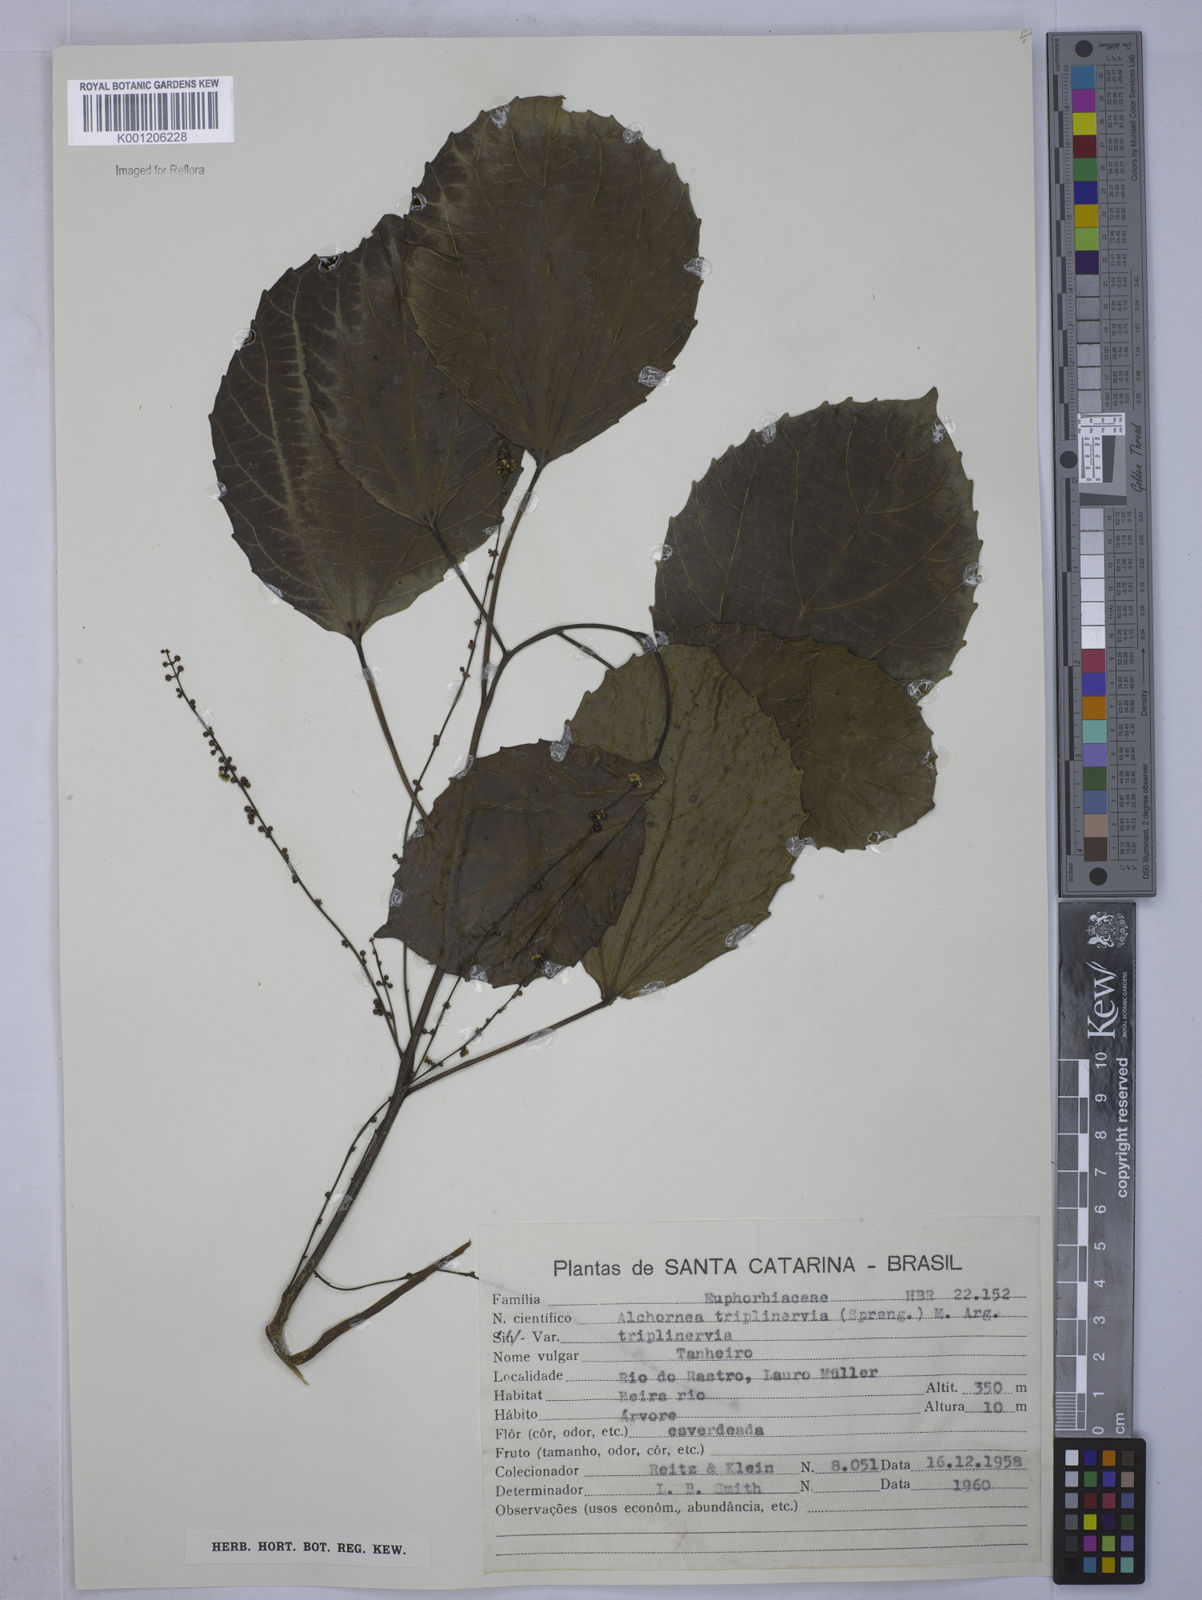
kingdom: Plantae
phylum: Tracheophyta
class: Magnoliopsida
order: Malpighiales
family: Euphorbiaceae
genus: Alchornea
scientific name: Alchornea
